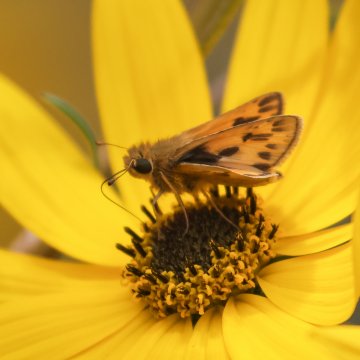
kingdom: Animalia
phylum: Arthropoda
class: Insecta
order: Lepidoptera
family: Hesperiidae
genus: Hylephila
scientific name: Hylephila phyleus
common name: Fiery Skipper
